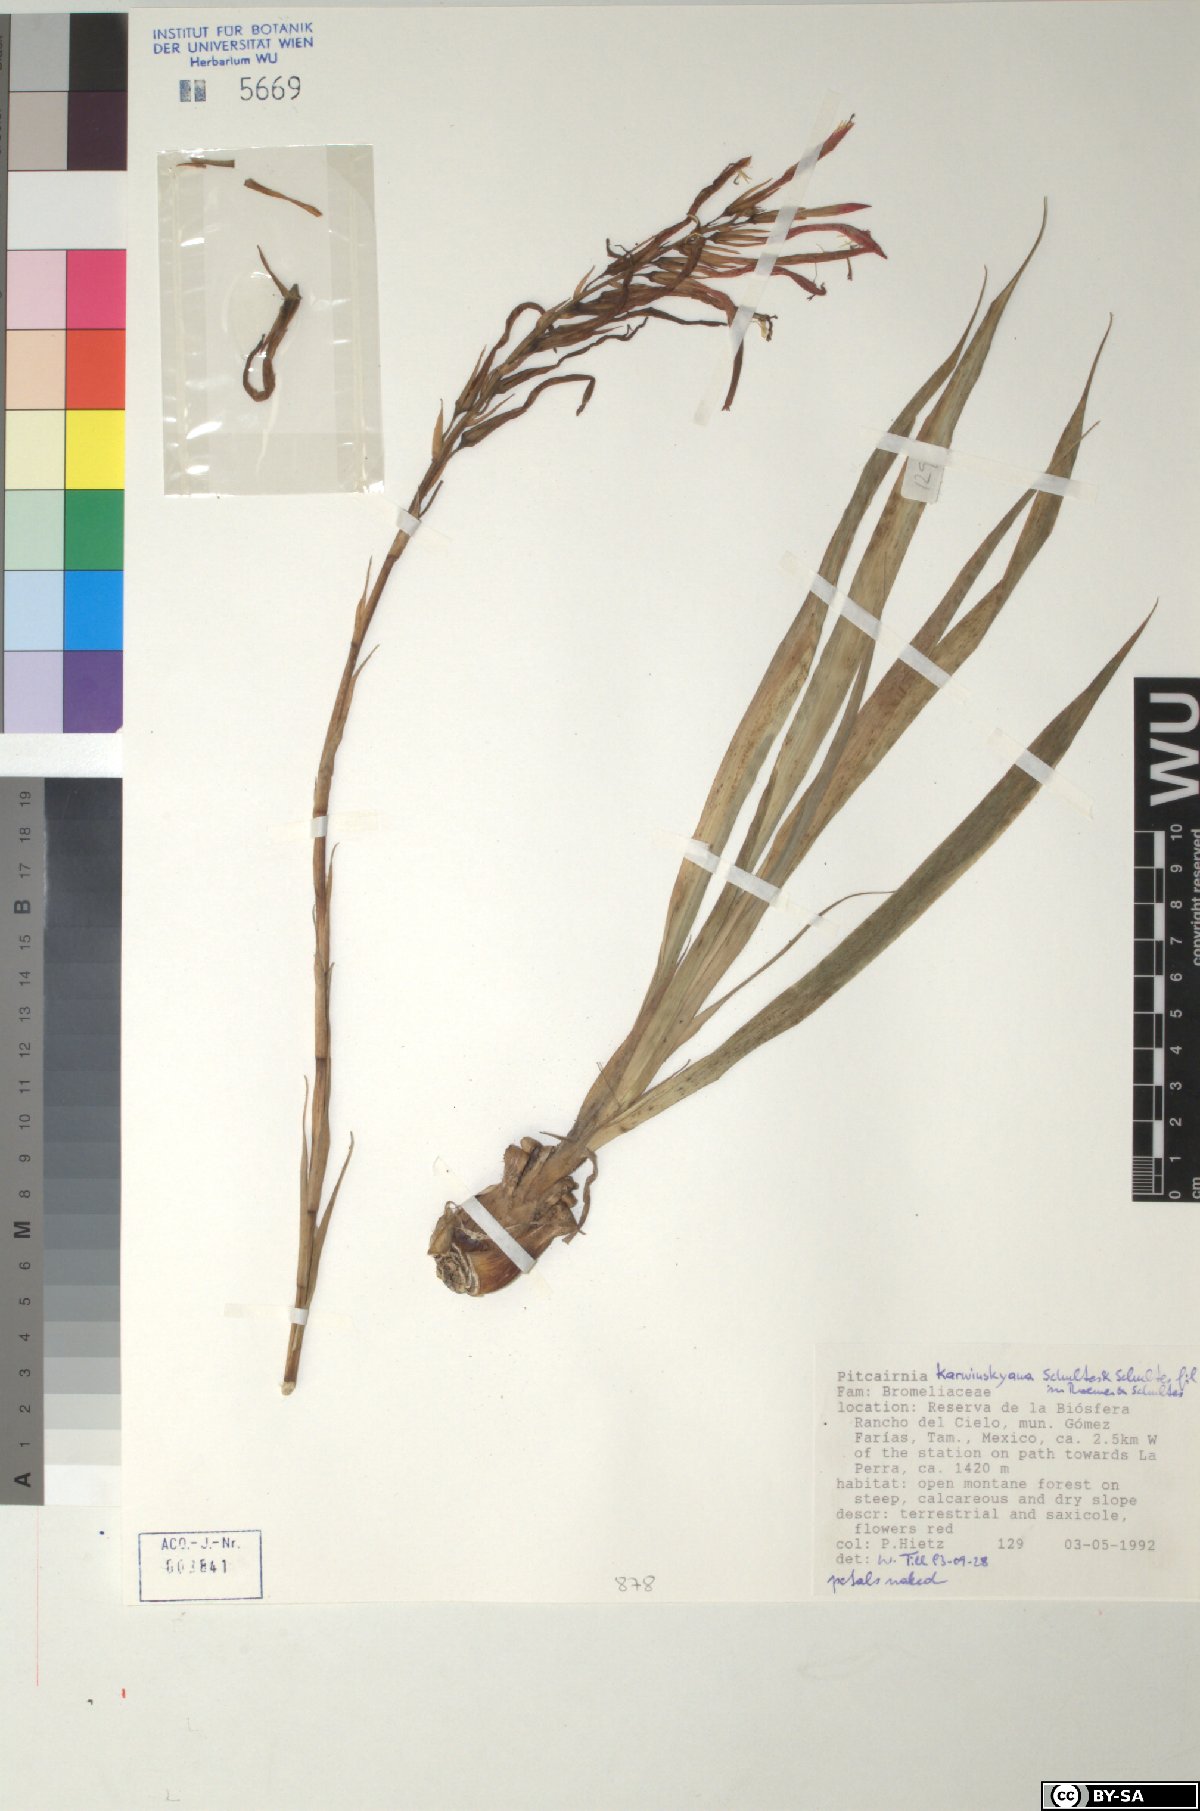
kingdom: Plantae
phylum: Tracheophyta
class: Liliopsida
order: Poales
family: Bromeliaceae
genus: Pitcairnia
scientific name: Pitcairnia karwinskyana
